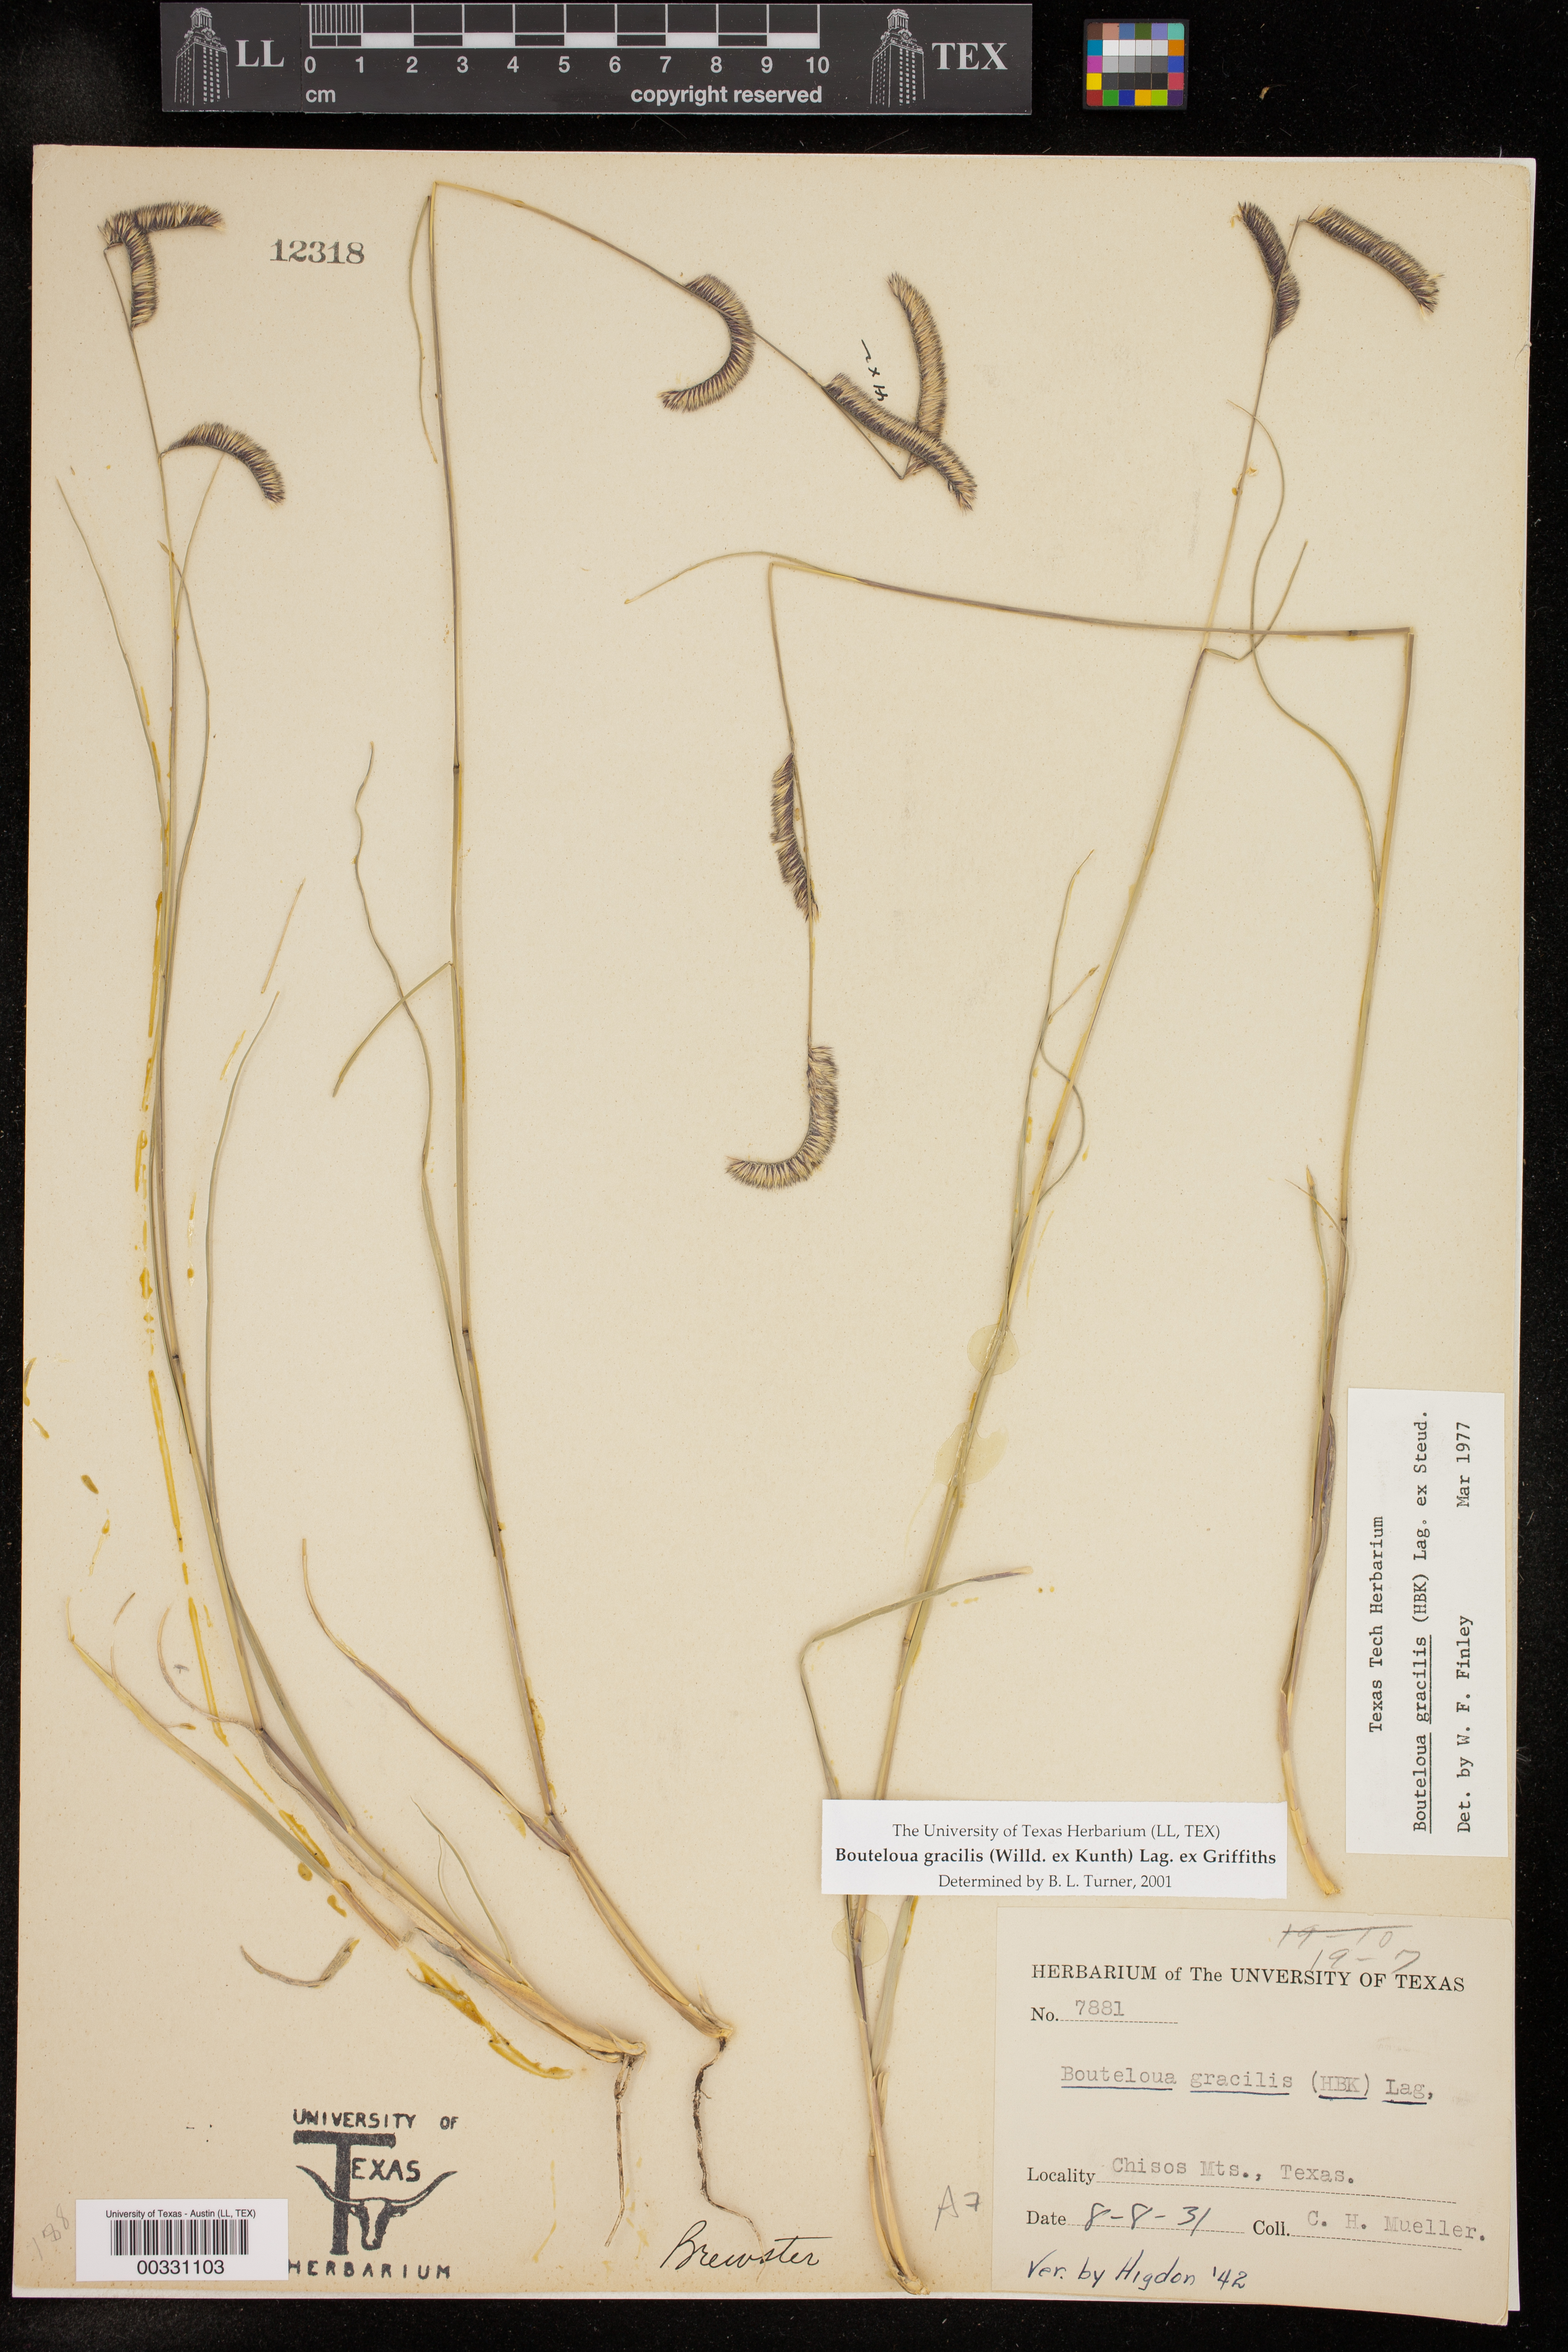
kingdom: Plantae
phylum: Tracheophyta
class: Liliopsida
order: Poales
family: Poaceae
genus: Bouteloua
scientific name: Bouteloua gracilis
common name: Blue grama
